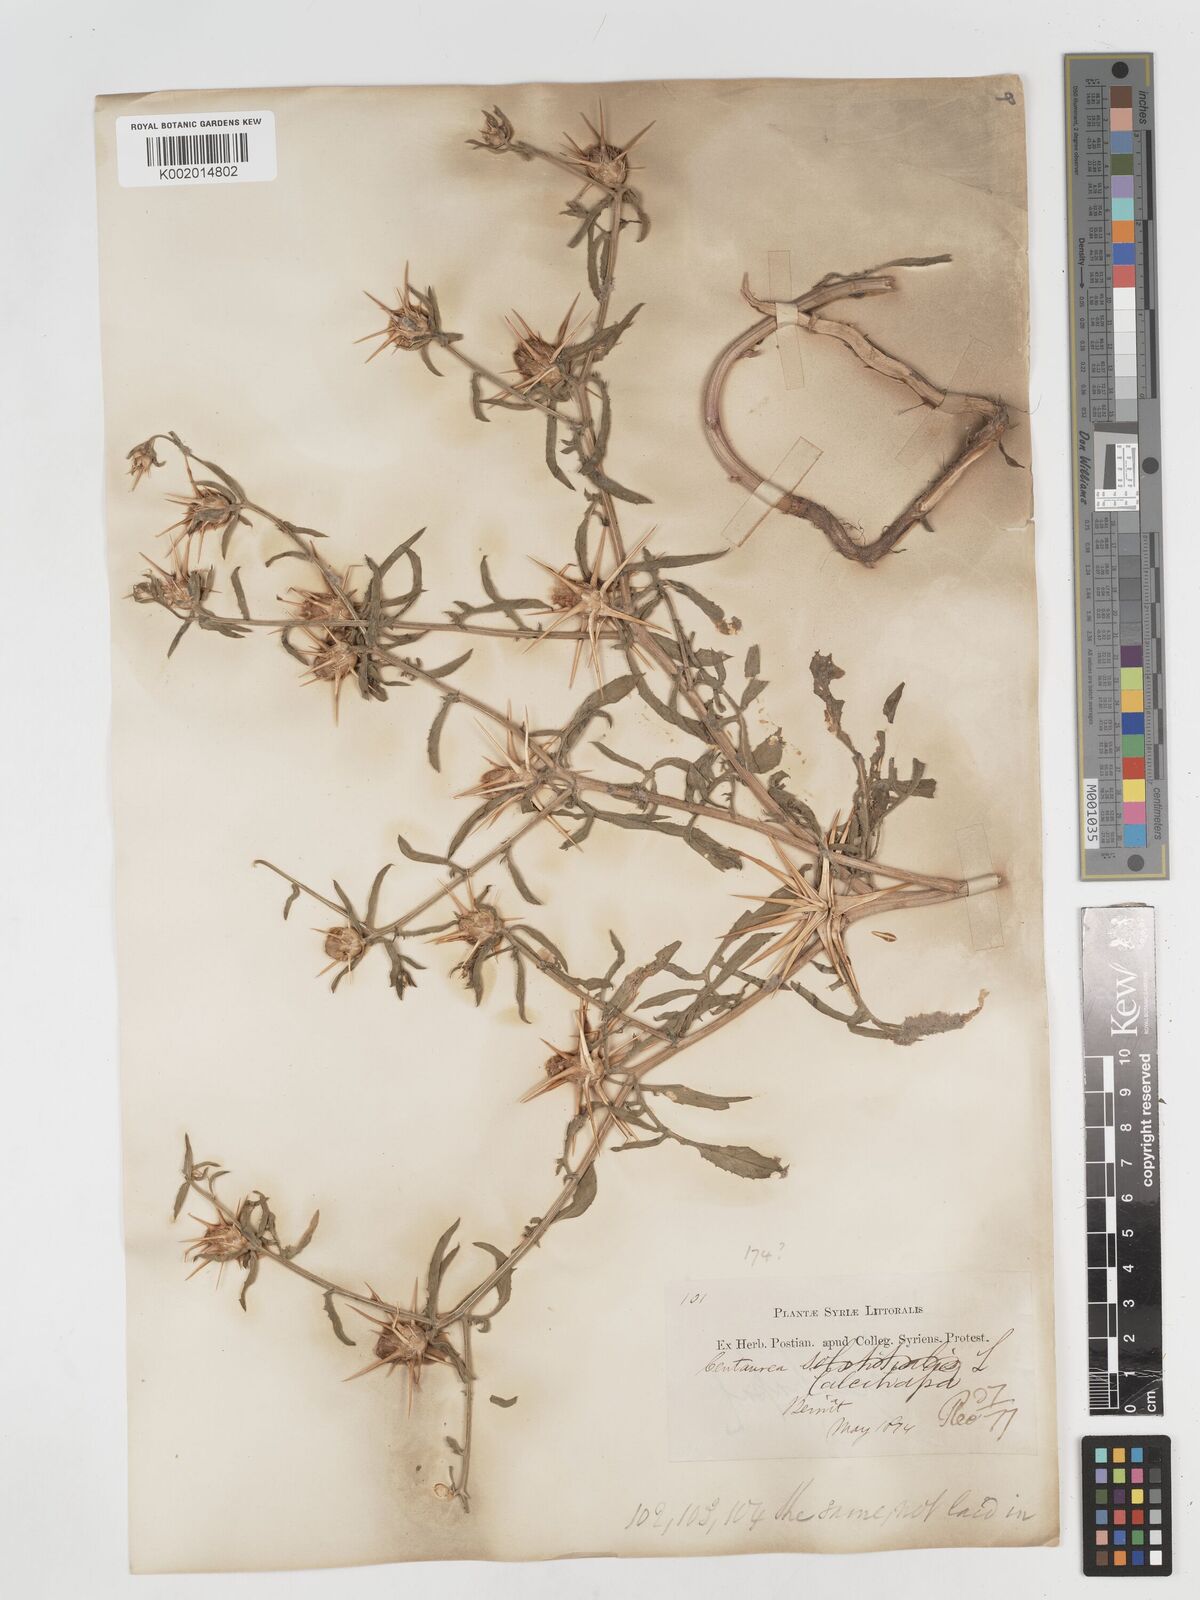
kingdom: Plantae
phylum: Tracheophyta
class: Magnoliopsida
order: Asterales
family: Asteraceae
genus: Centaurea
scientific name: Centaurea iberica
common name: Iberian knapweed
